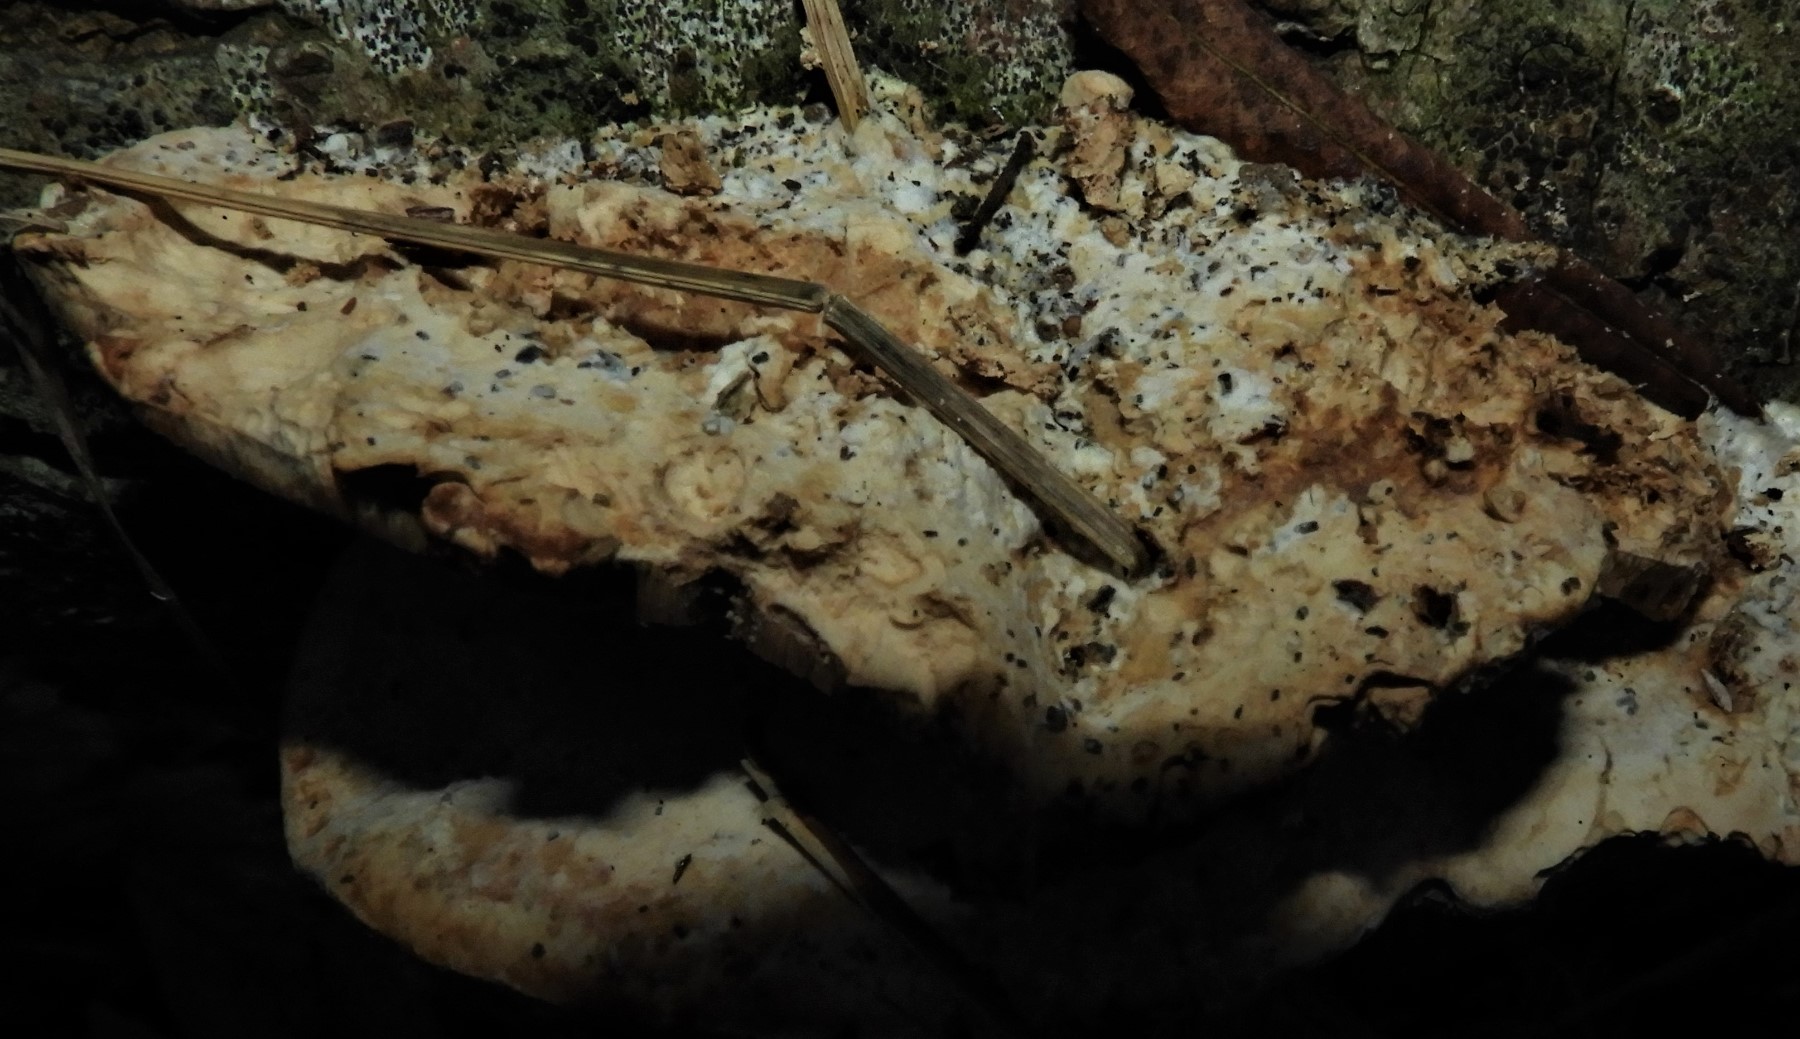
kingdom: Fungi
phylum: Basidiomycota
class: Agaricomycetes
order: Polyporales
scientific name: Polyporales
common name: poresvampordenen
